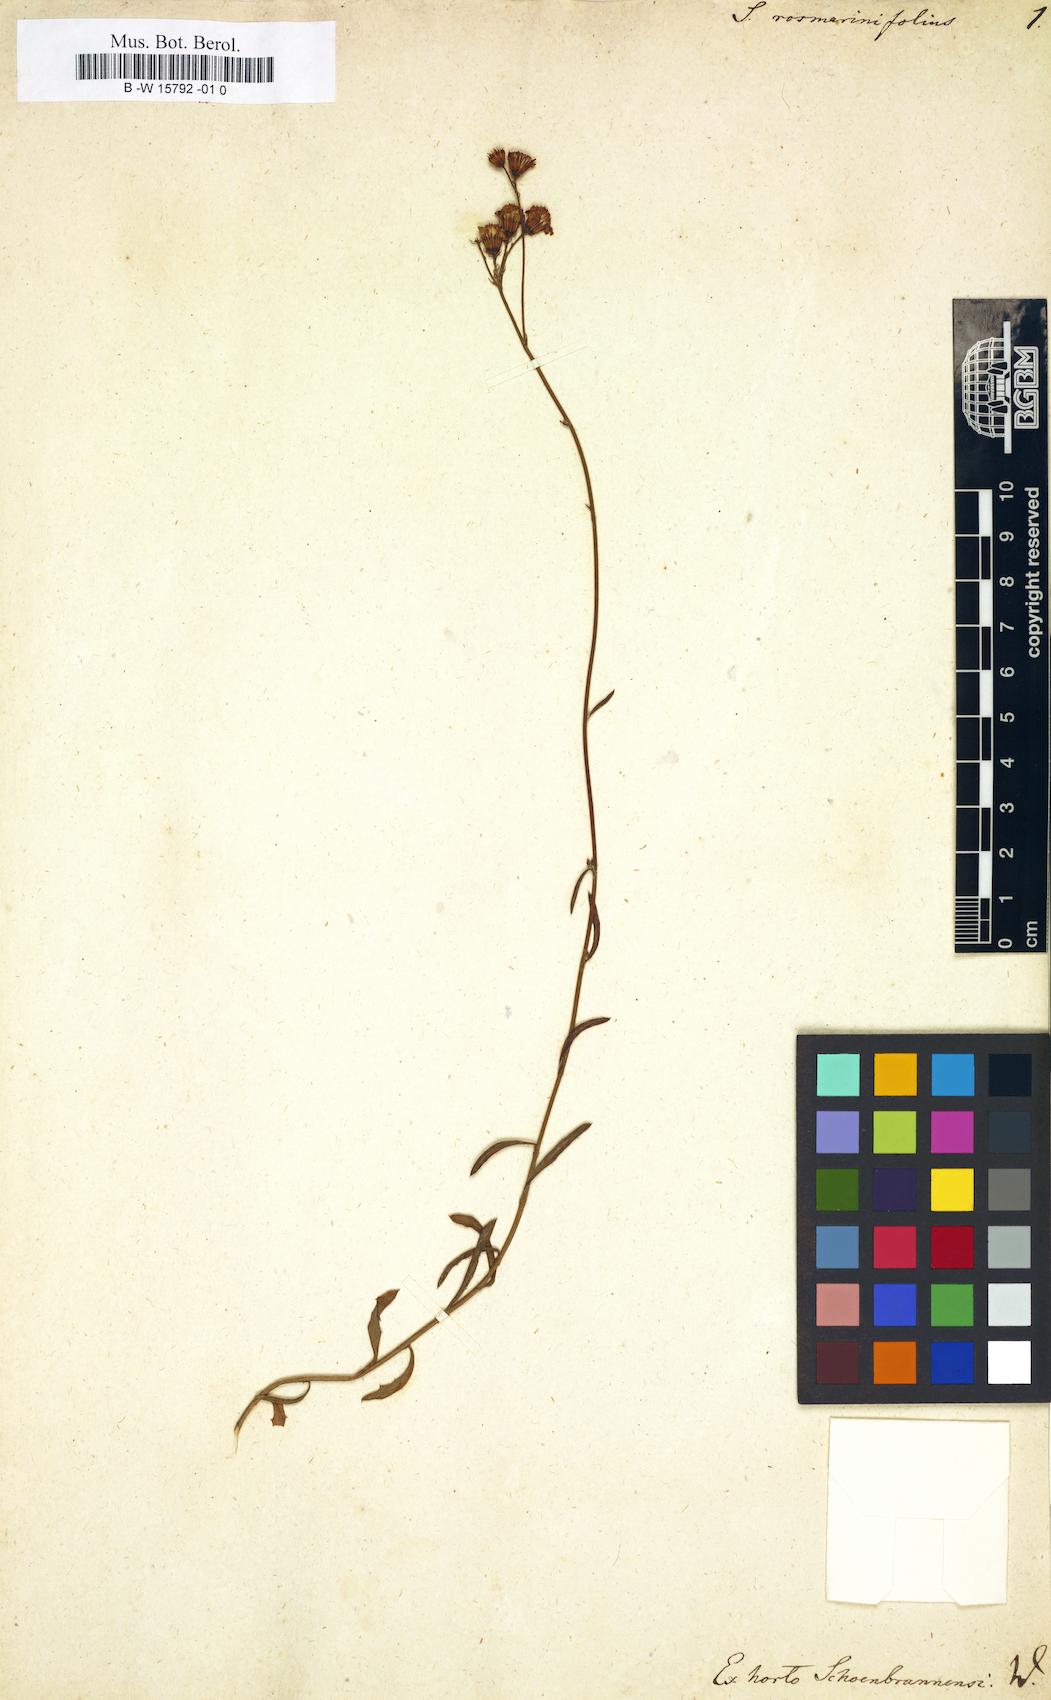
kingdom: Plantae
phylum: Tracheophyta
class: Magnoliopsida
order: Asterales
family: Asteraceae
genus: Senecio
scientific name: Senecio rosmarinifolius
